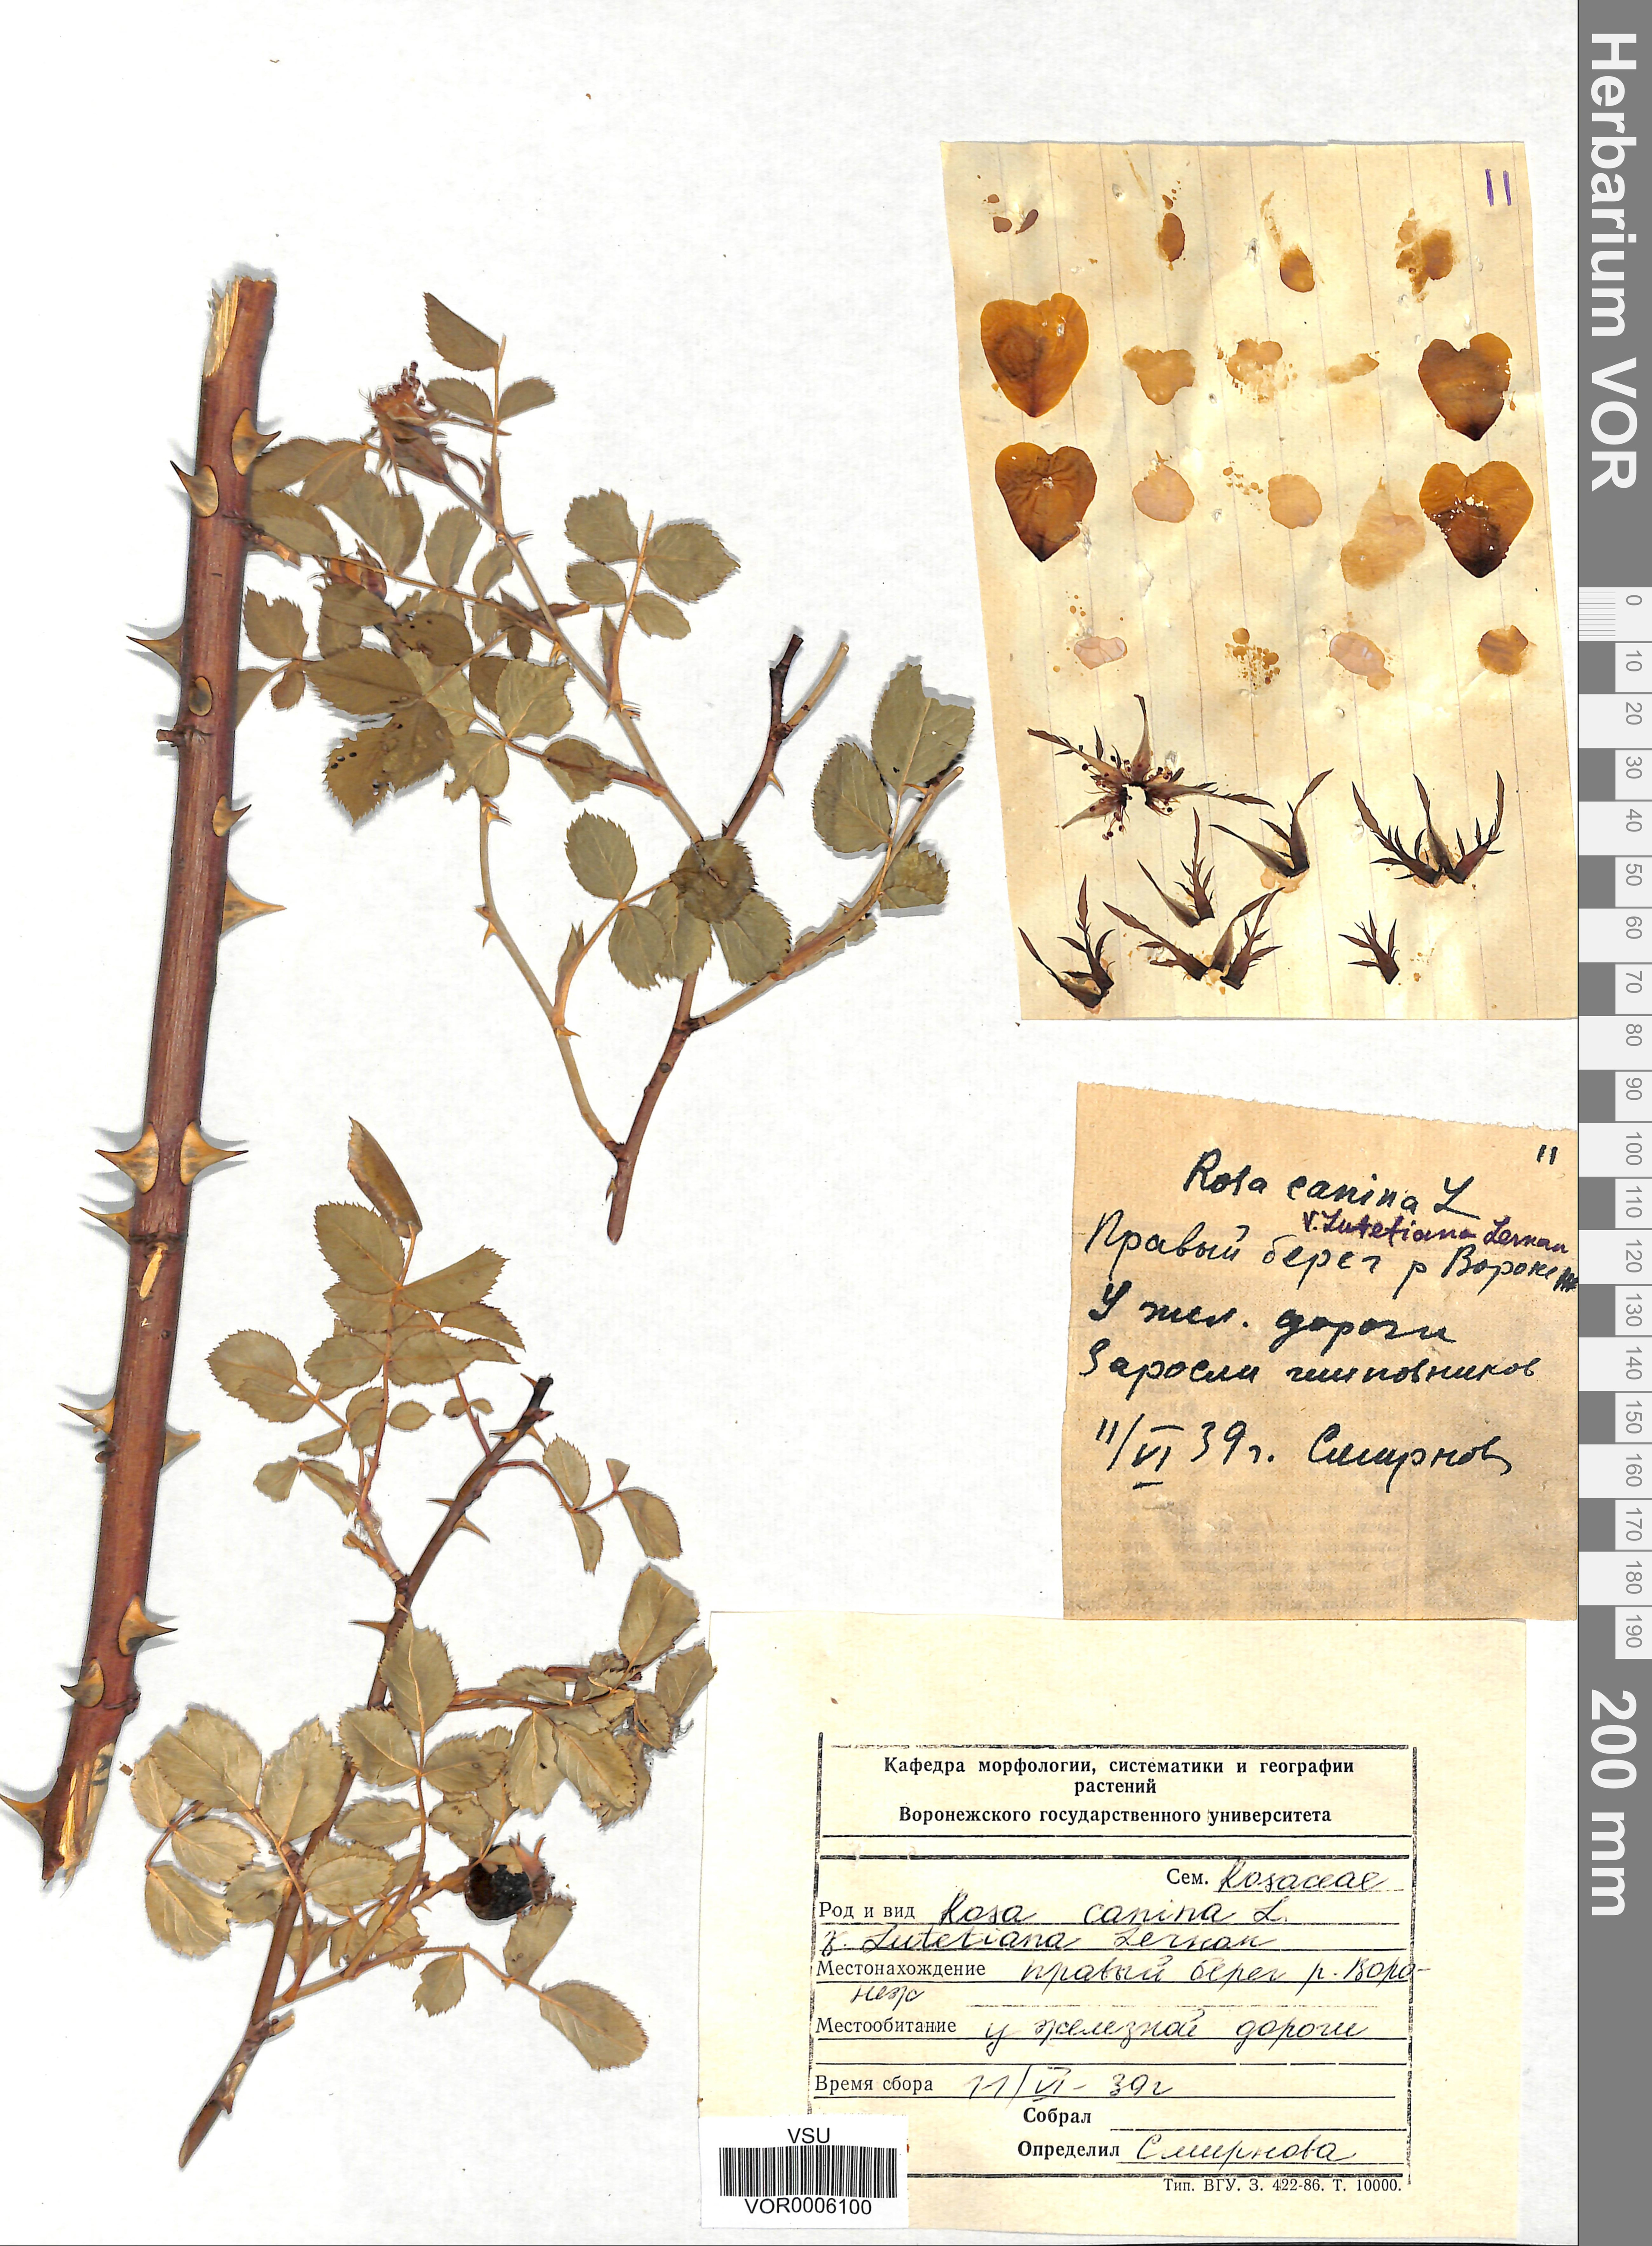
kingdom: Plantae
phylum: Tracheophyta
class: Magnoliopsida
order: Rosales
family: Rosaceae
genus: Rosa
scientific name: Rosa canina
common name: Dog rose
